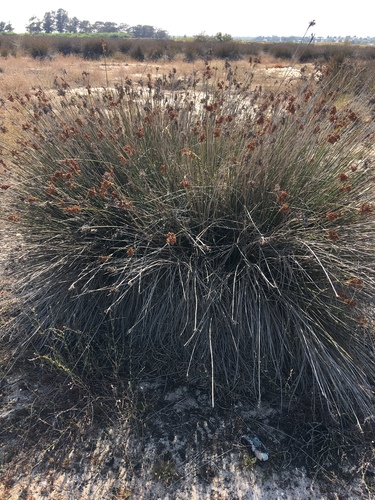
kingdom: Plantae
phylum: Tracheophyta
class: Liliopsida
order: Poales
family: Juncaceae
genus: Juncus
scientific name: Juncus acutus
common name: Sharp rush
